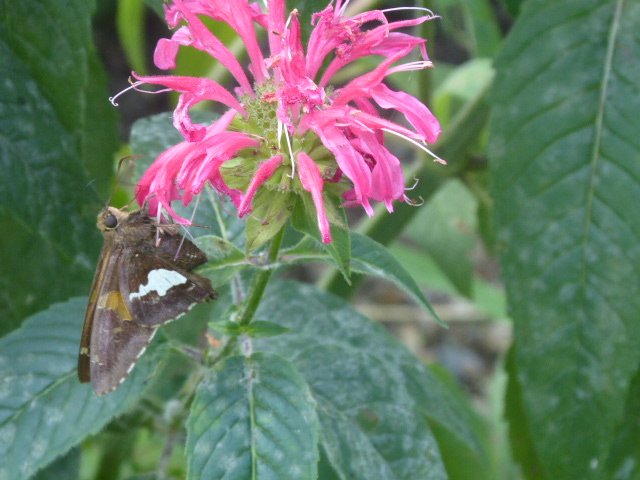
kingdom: Animalia
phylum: Arthropoda
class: Insecta
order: Lepidoptera
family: Hesperiidae
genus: Epargyreus
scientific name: Epargyreus clarus
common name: Silver-spotted Skipper
